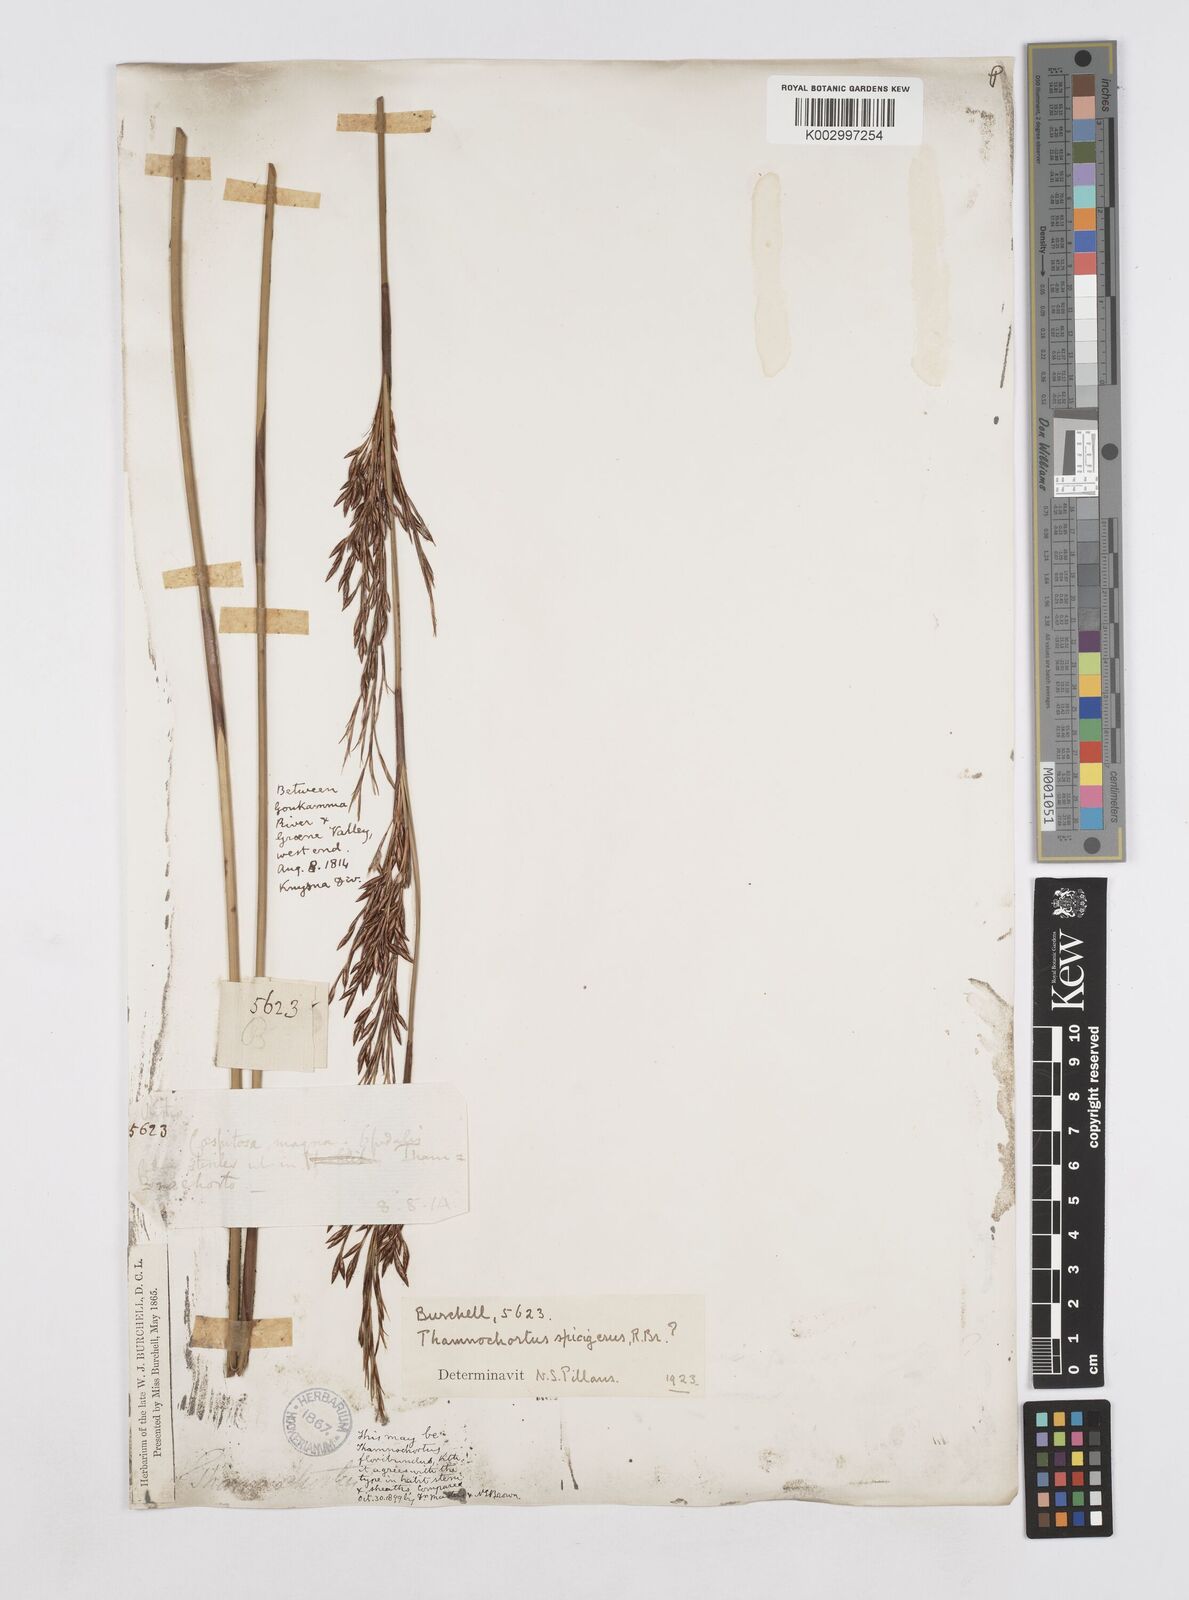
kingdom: Plantae
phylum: Tracheophyta
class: Liliopsida
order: Poales
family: Restionaceae
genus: Thamnochortus
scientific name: Thamnochortus spicigerus
